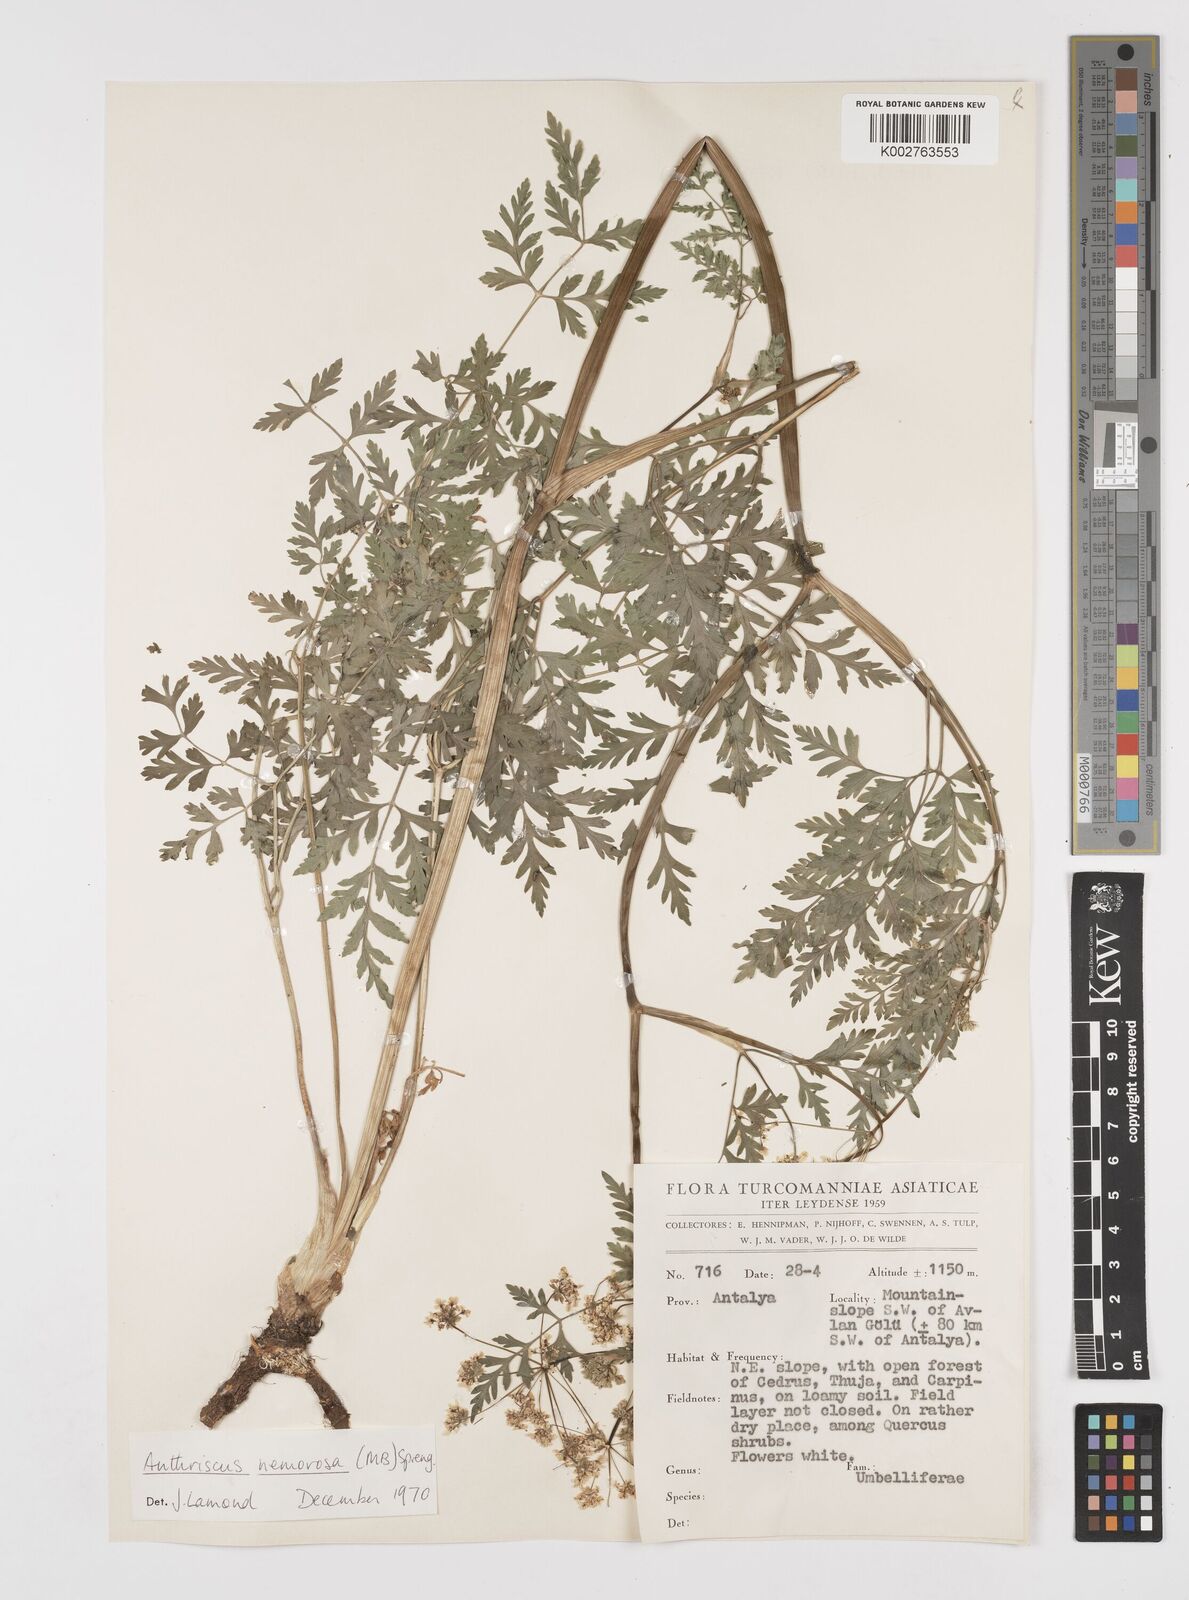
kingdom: Plantae
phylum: Tracheophyta
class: Magnoliopsida
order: Apiales
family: Apiaceae
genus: Anthriscus
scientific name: Anthriscus sylvestris
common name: Cow parsley
